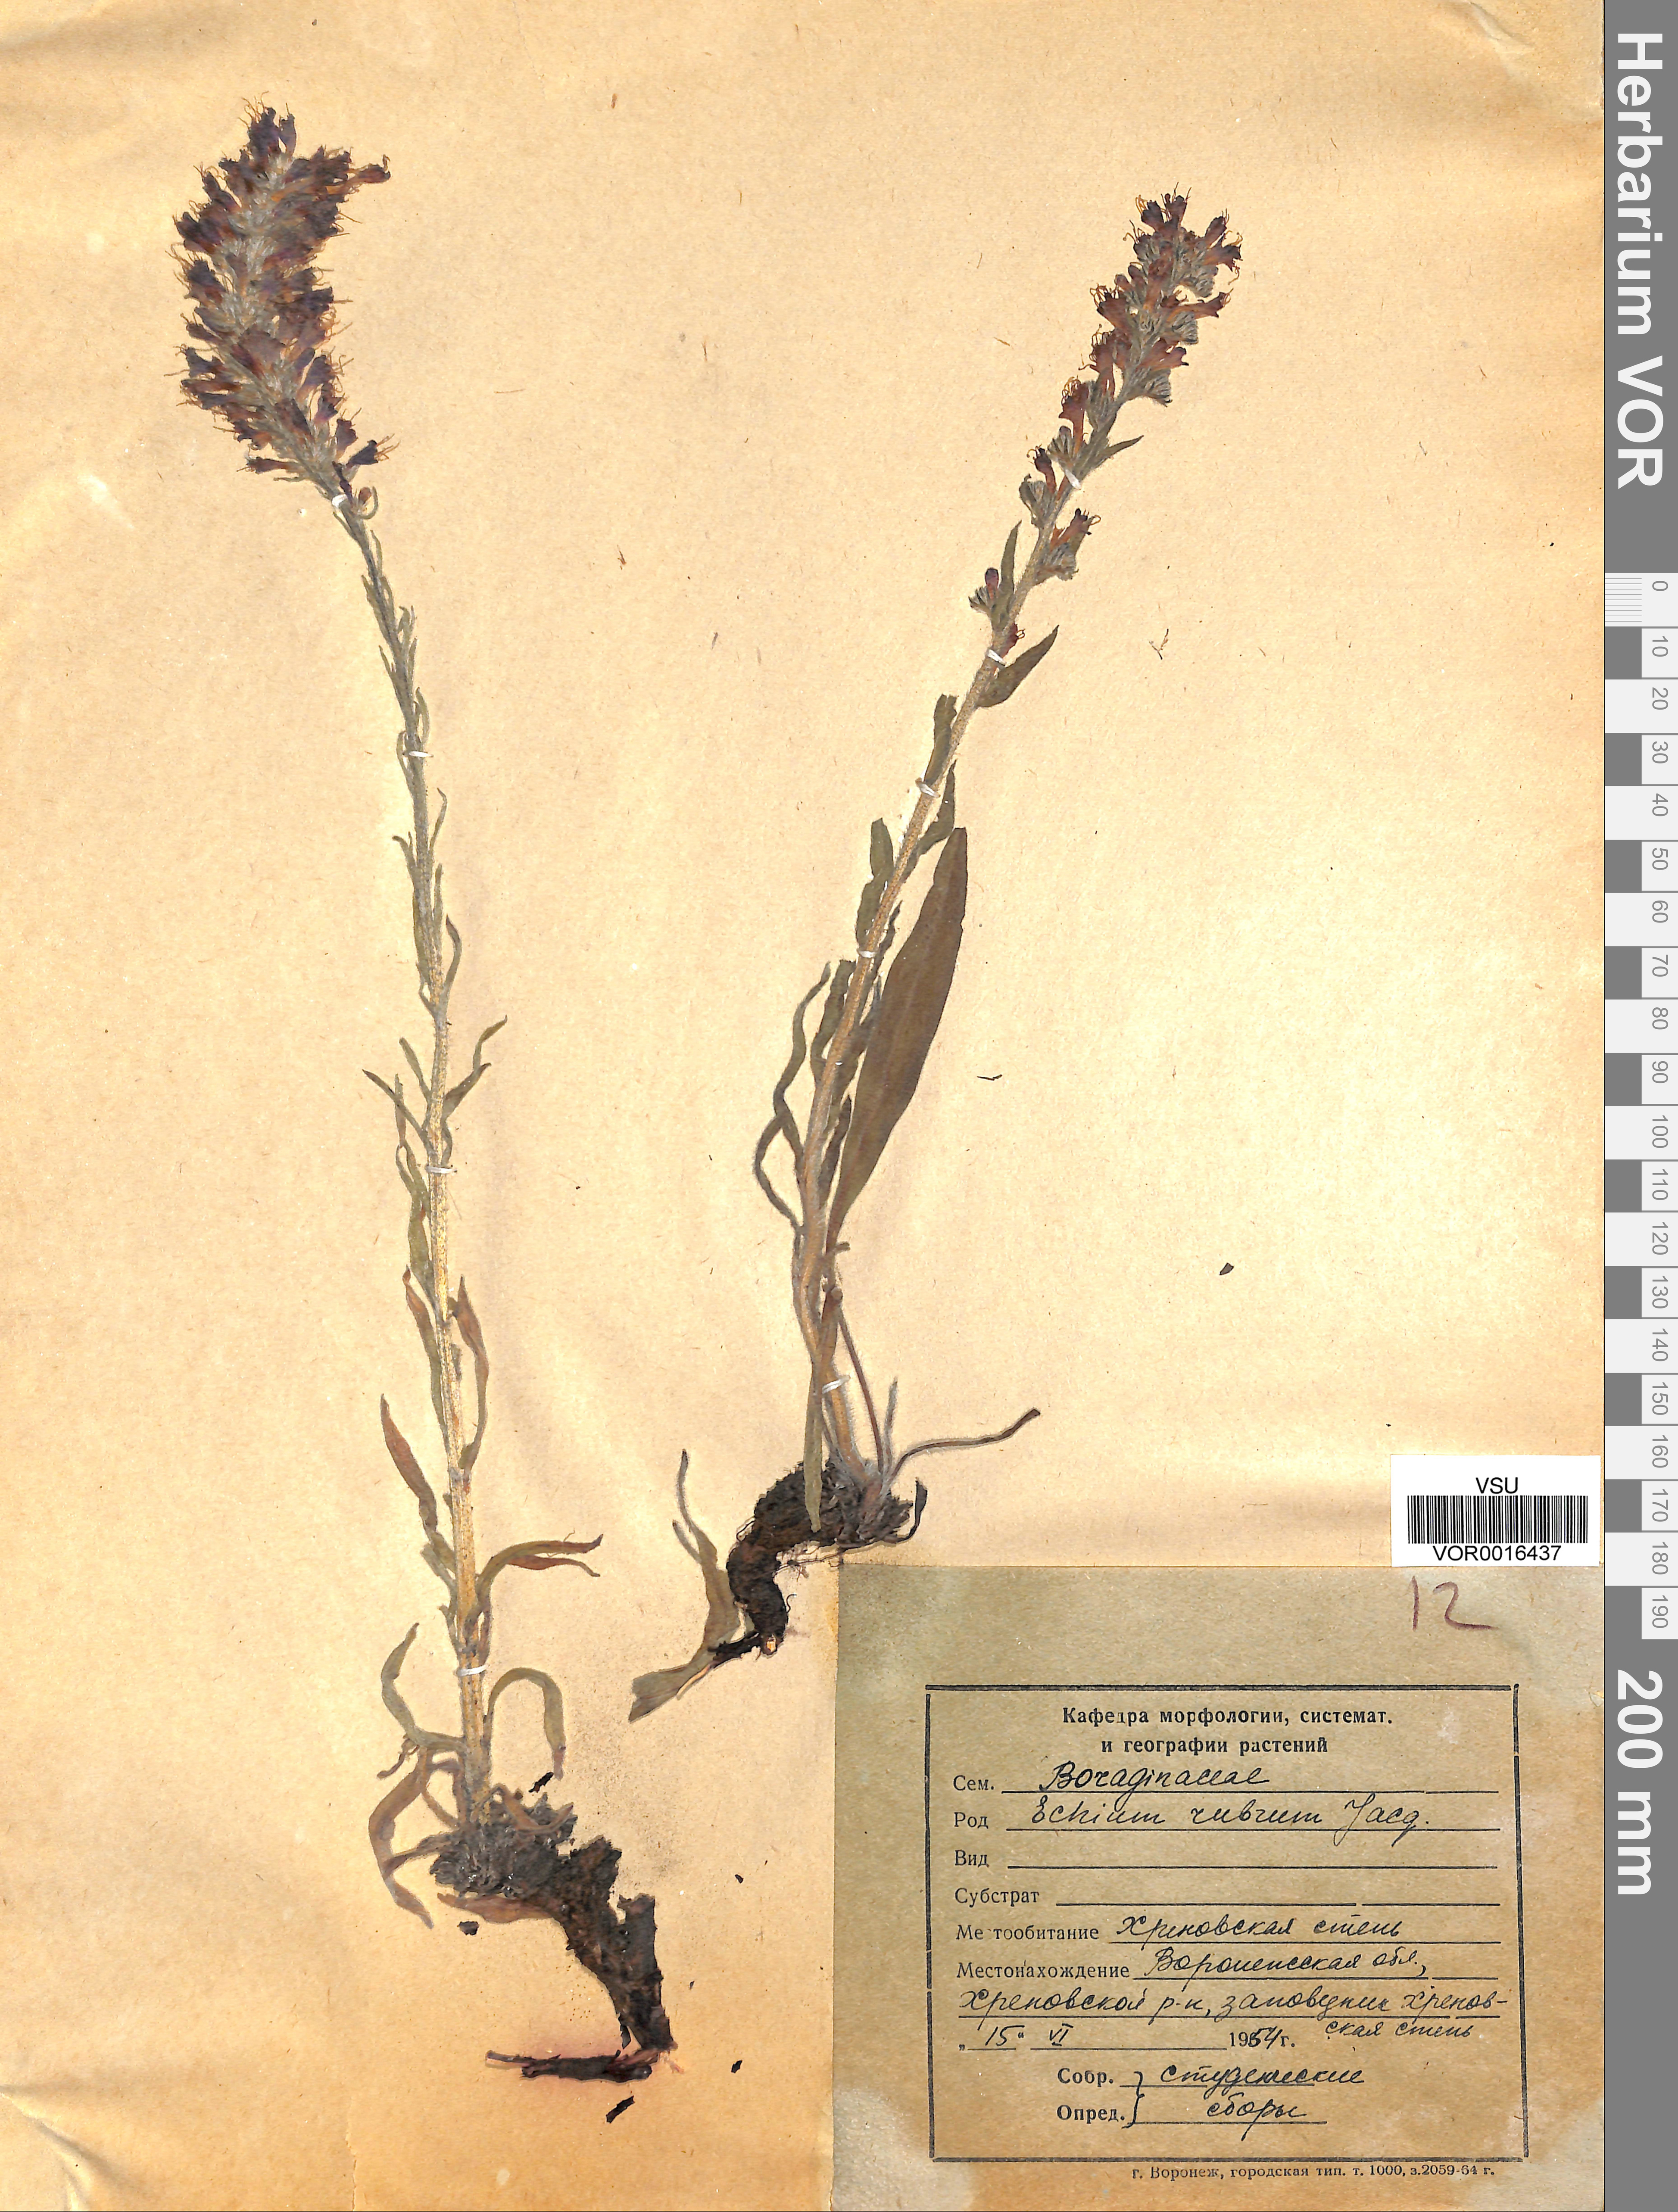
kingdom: Plantae
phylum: Tracheophyta
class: Magnoliopsida
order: Boraginales
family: Boraginaceae
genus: Pontechium
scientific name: Pontechium maculatum
